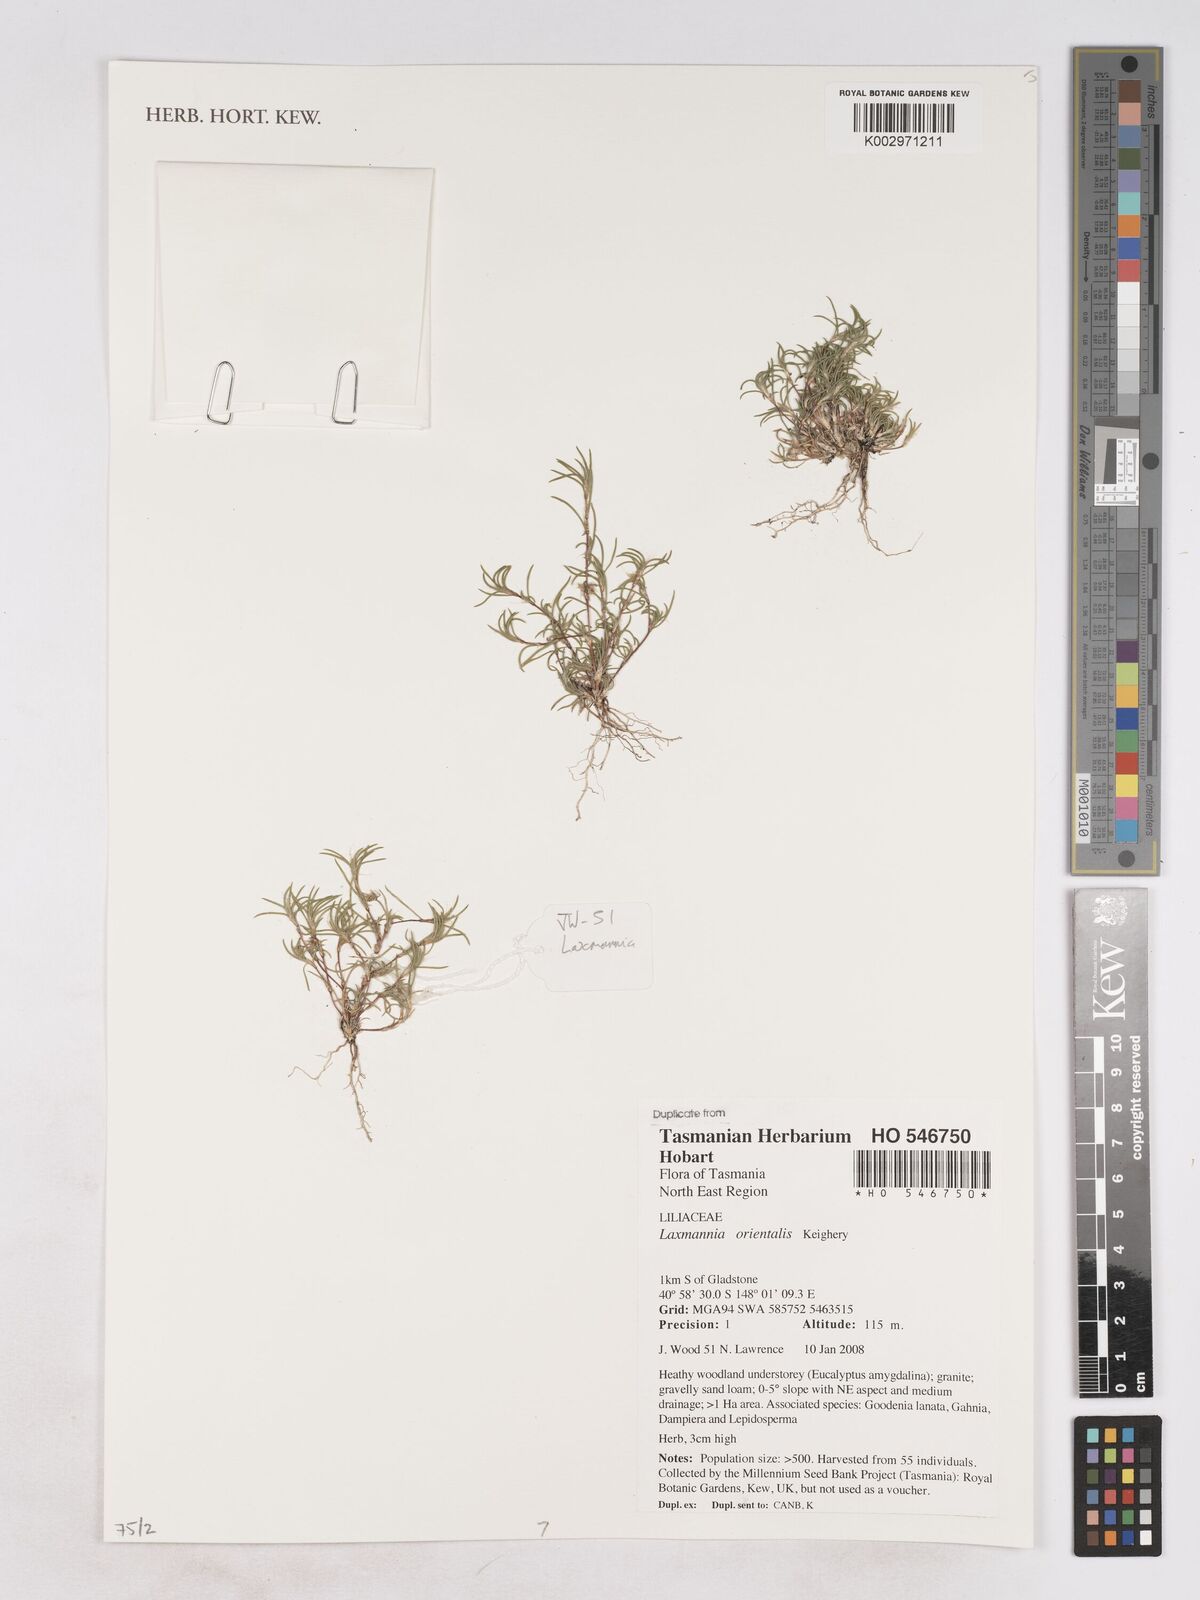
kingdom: Plantae
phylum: Tracheophyta
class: Liliopsida
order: Asparagales
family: Asparagaceae
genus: Laxmannia
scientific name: Laxmannia orientalis
